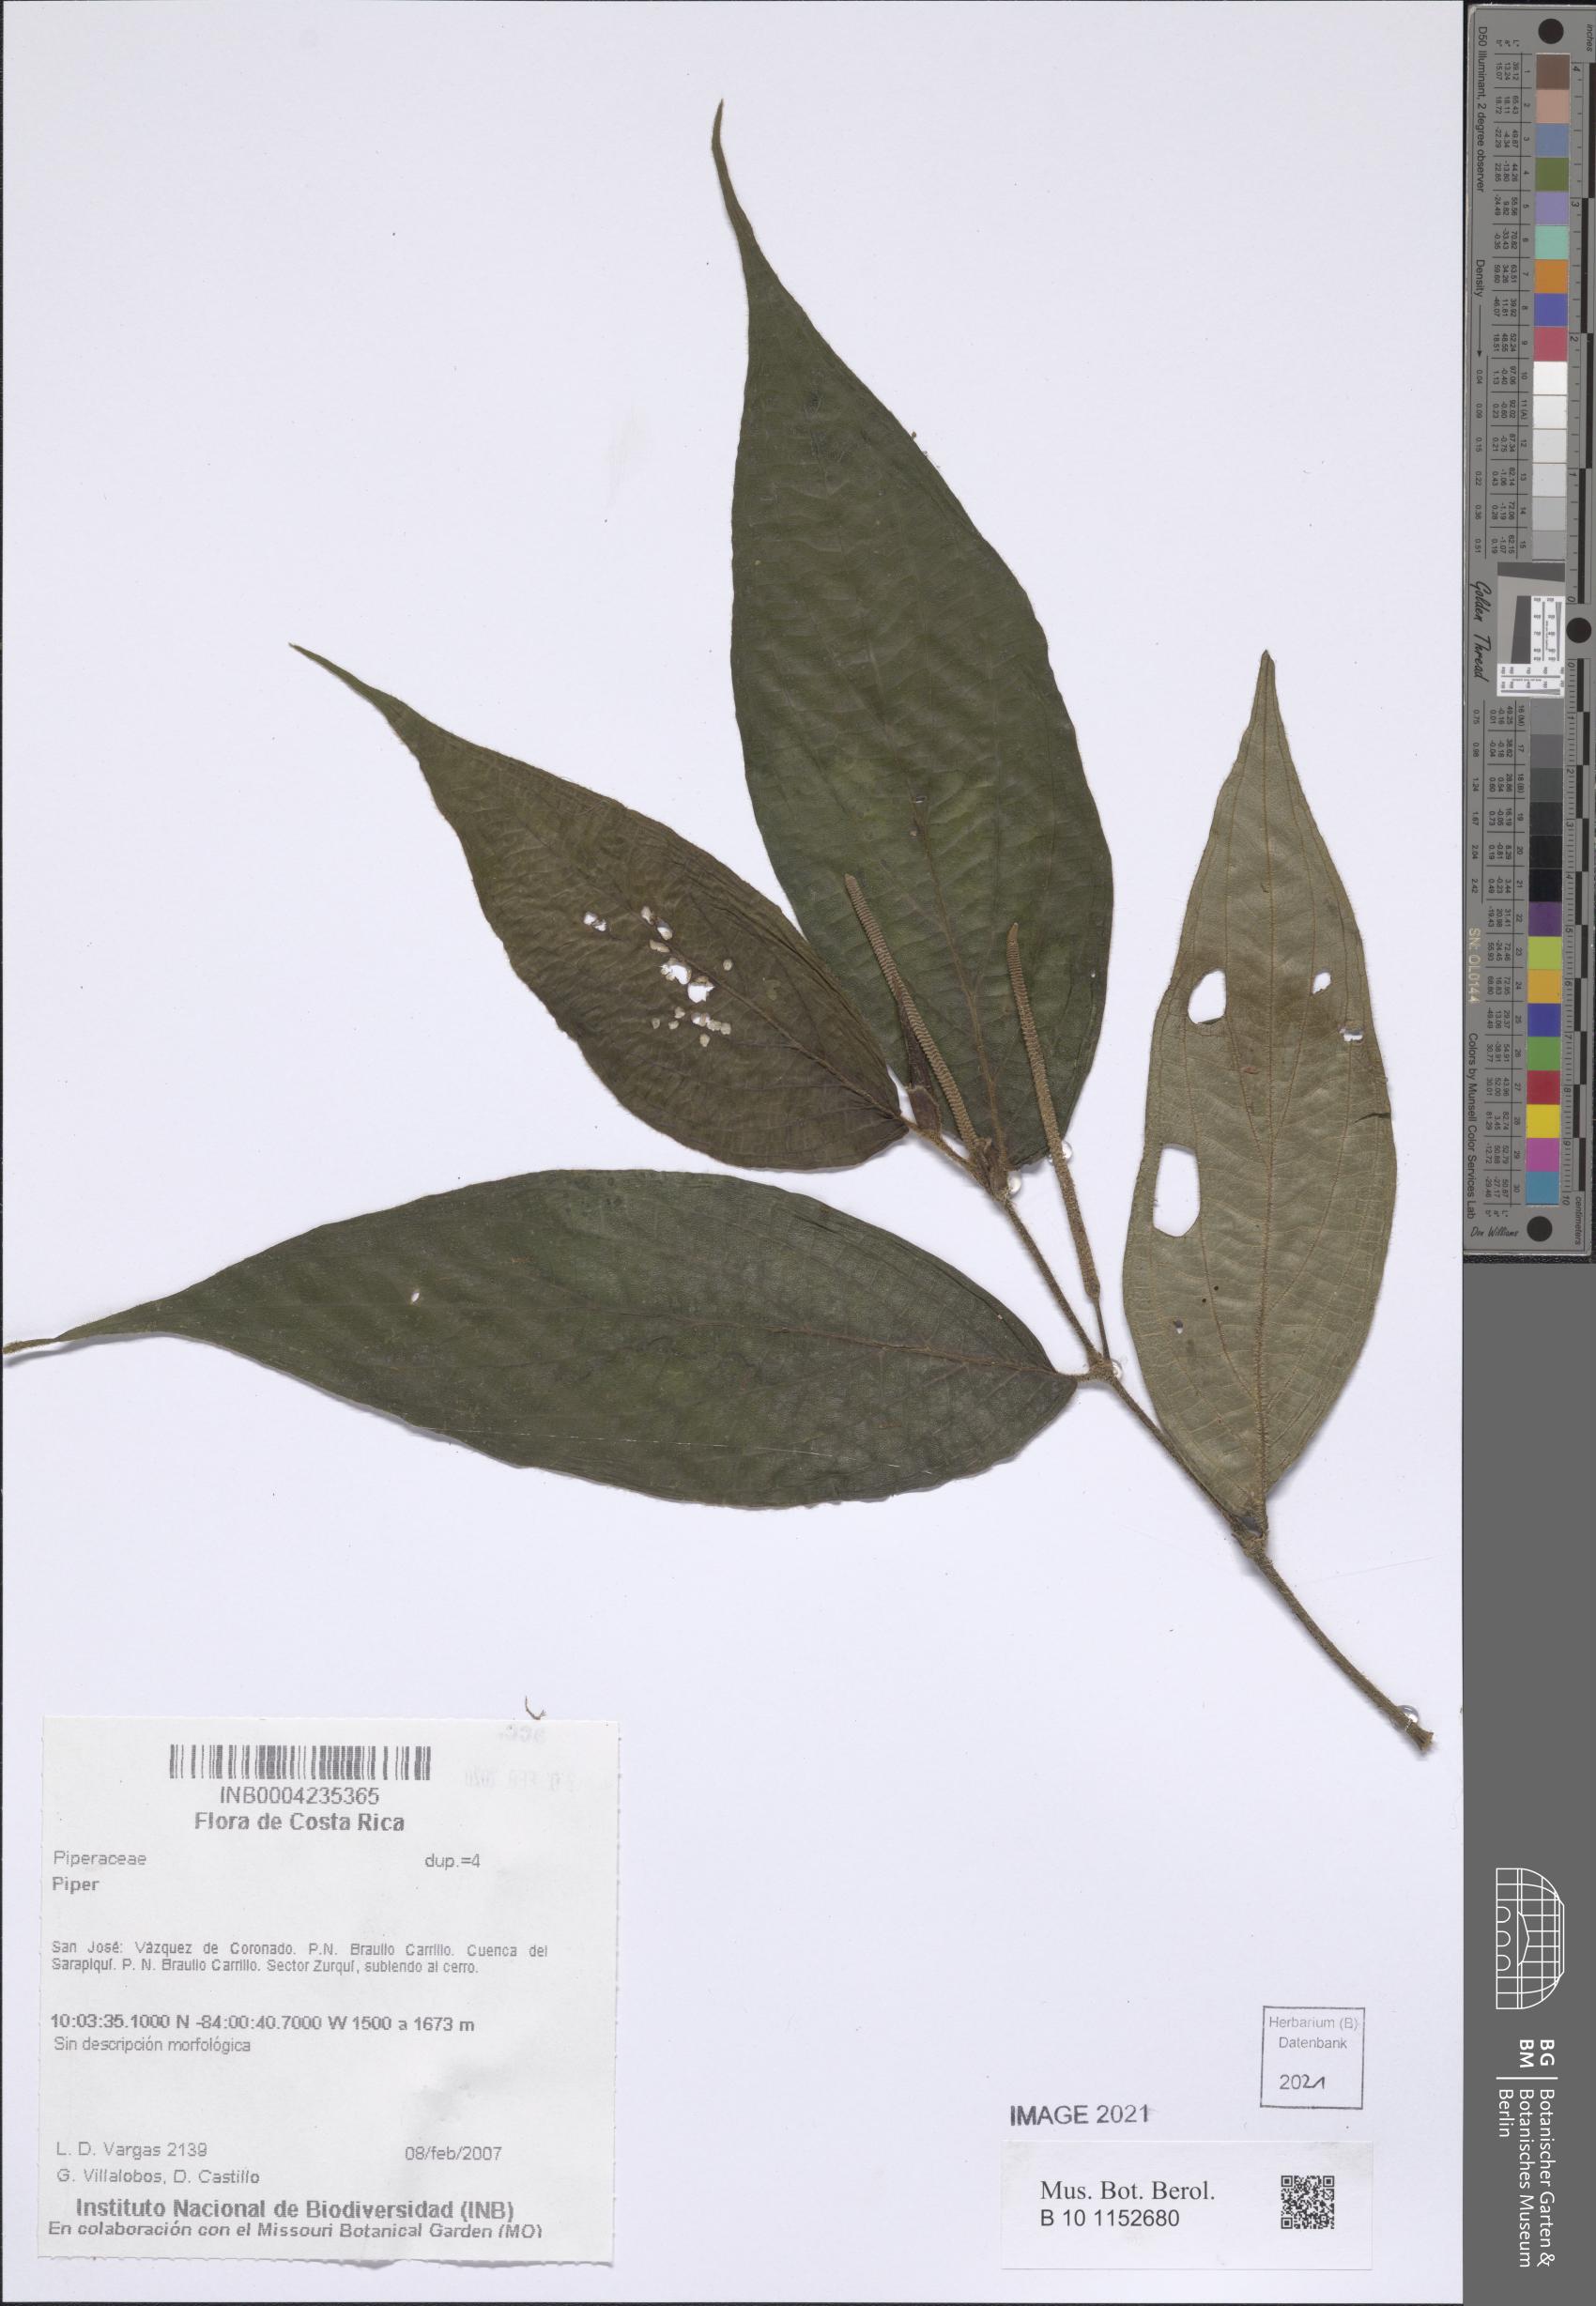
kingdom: Plantae
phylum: Tracheophyta
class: Magnoliopsida
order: Piperales
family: Piperaceae
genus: Piper
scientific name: Piper
